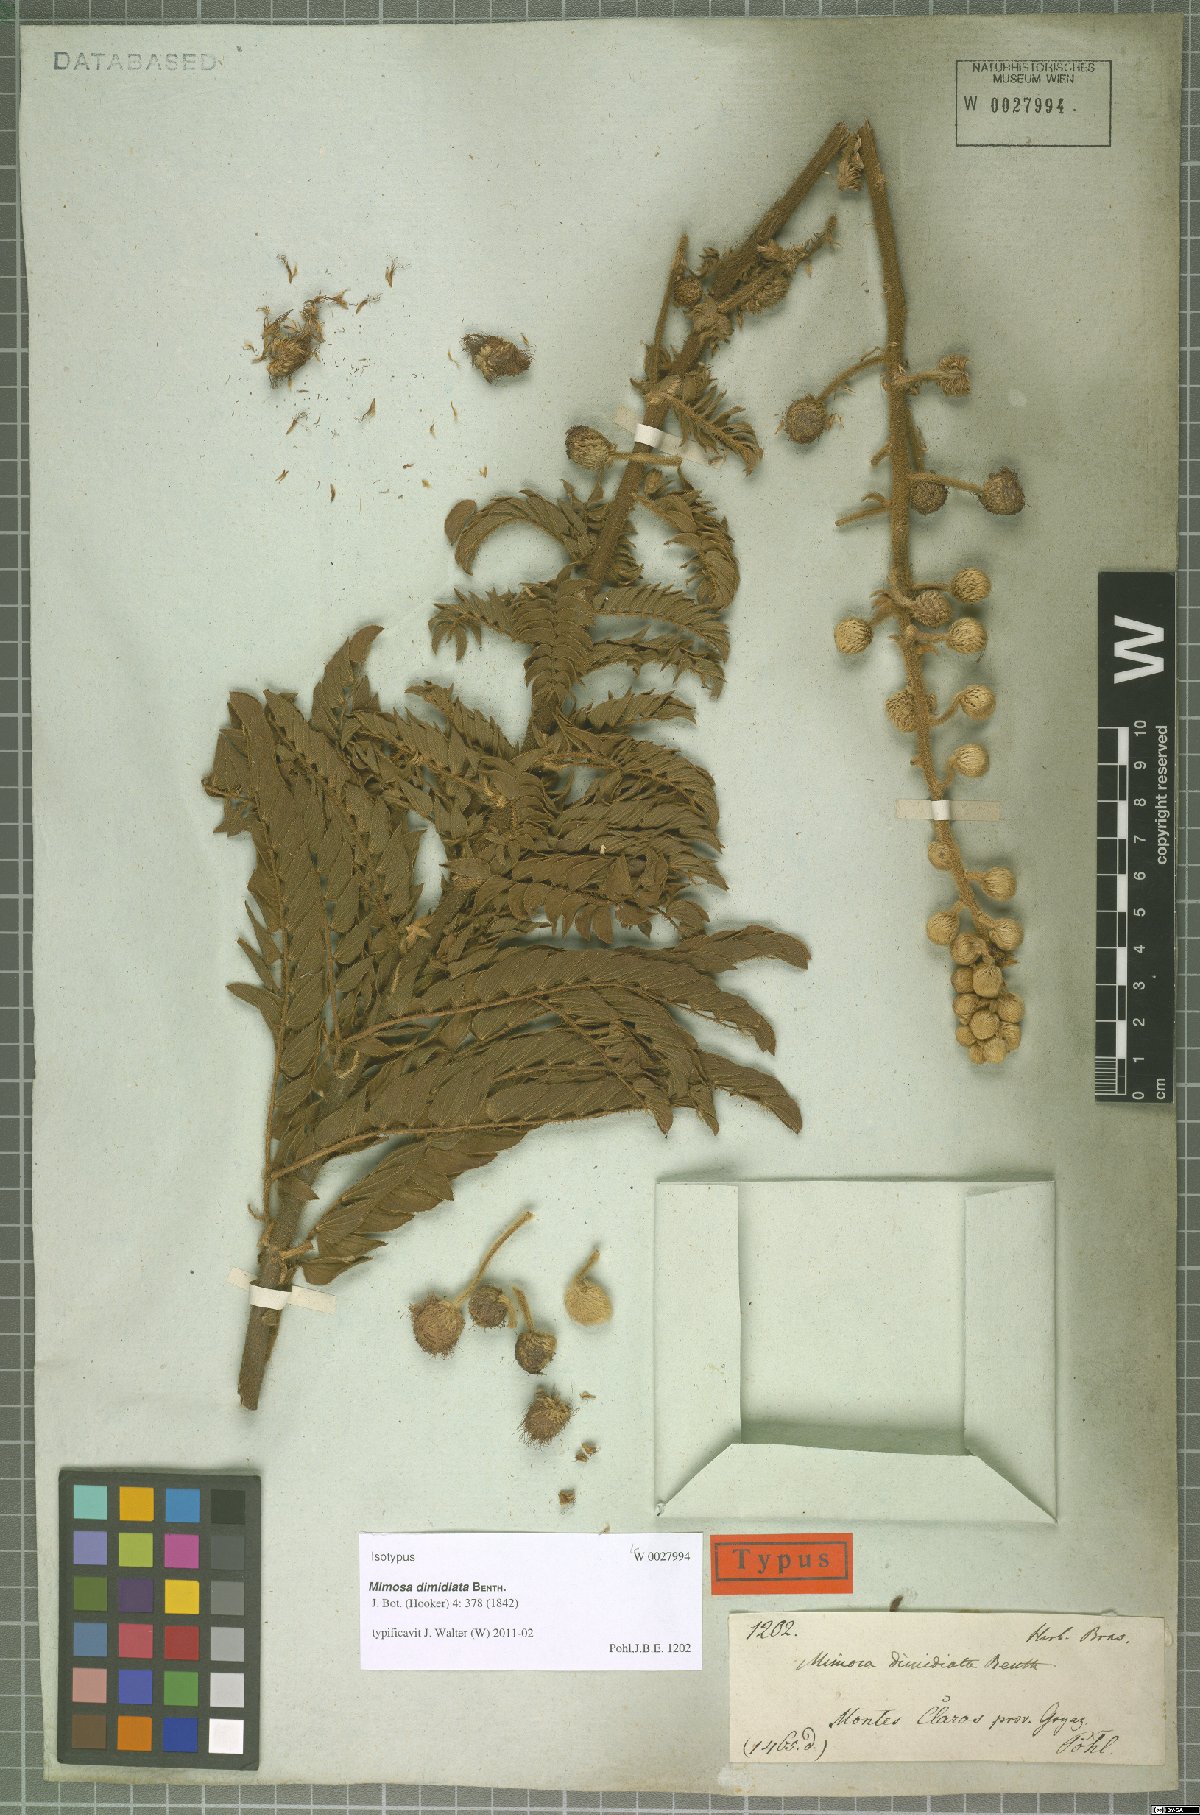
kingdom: Plantae
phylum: Tracheophyta
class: Magnoliopsida
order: Fabales
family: Fabaceae
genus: Mimosa
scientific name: Mimosa radula
